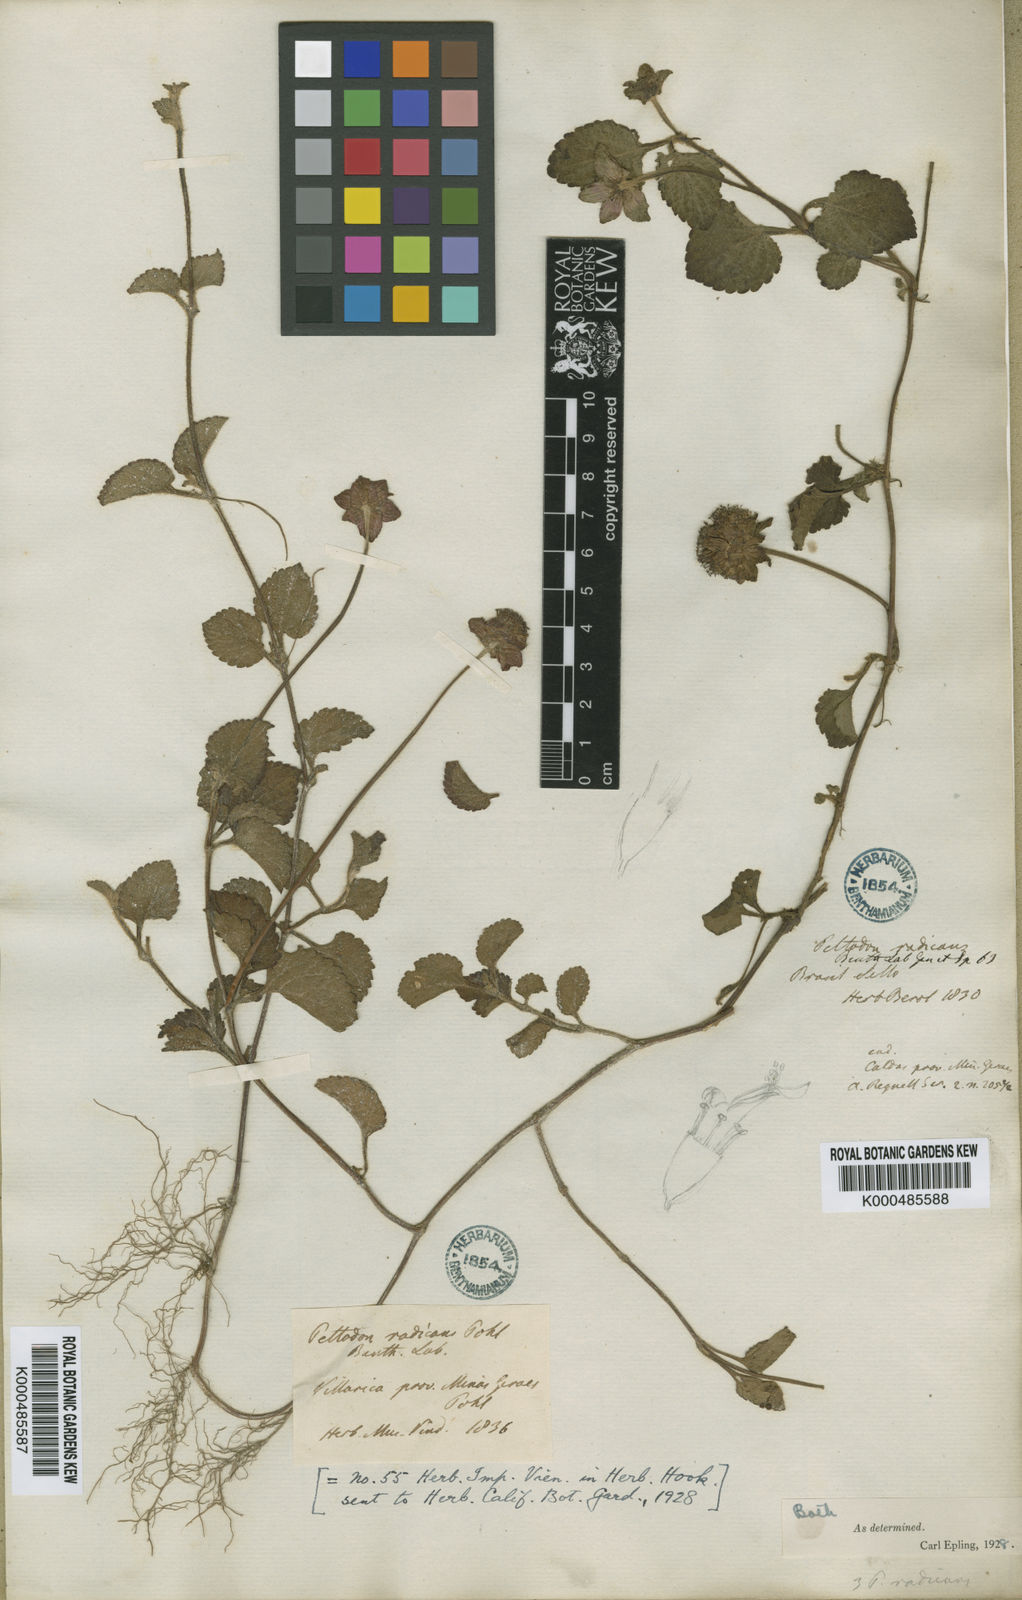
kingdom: Plantae
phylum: Tracheophyta
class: Magnoliopsida
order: Lamiales
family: Lamiaceae
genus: Hyptis
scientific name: Hyptis radicans
